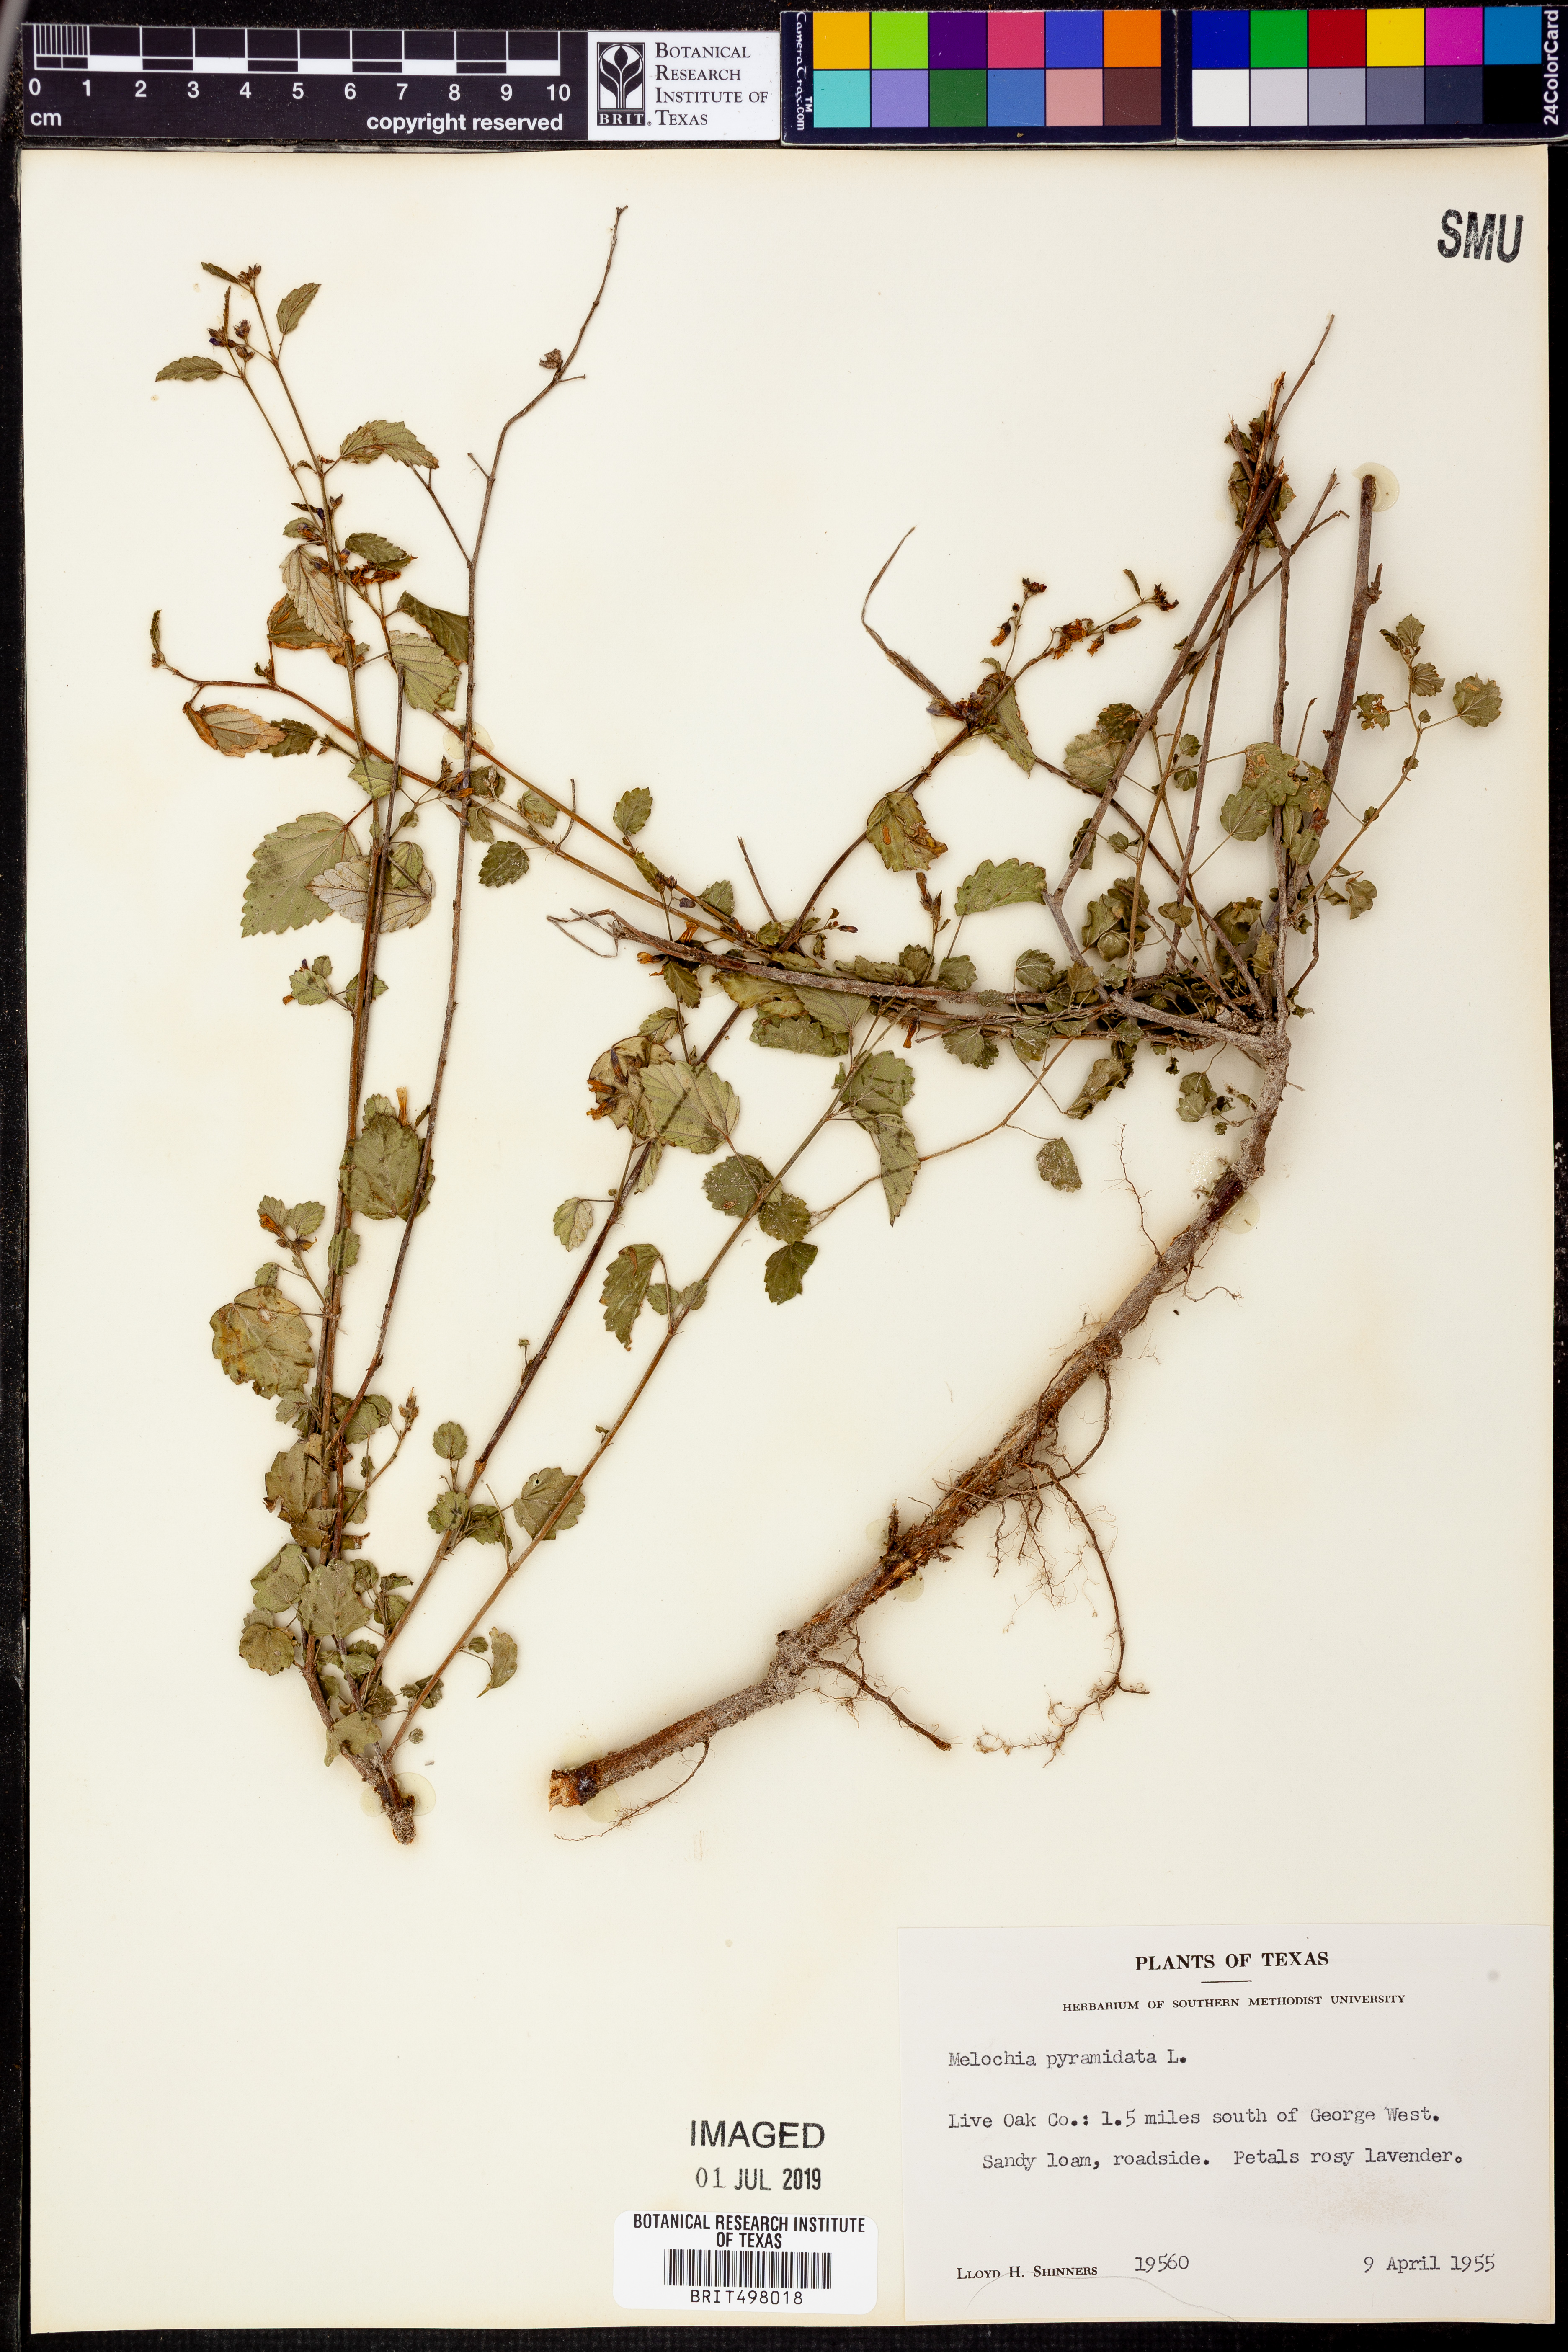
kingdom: Plantae
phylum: Tracheophyta
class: Magnoliopsida
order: Malvales
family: Malvaceae
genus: Melochia
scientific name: Melochia pyramidata
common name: Pyramidflower
